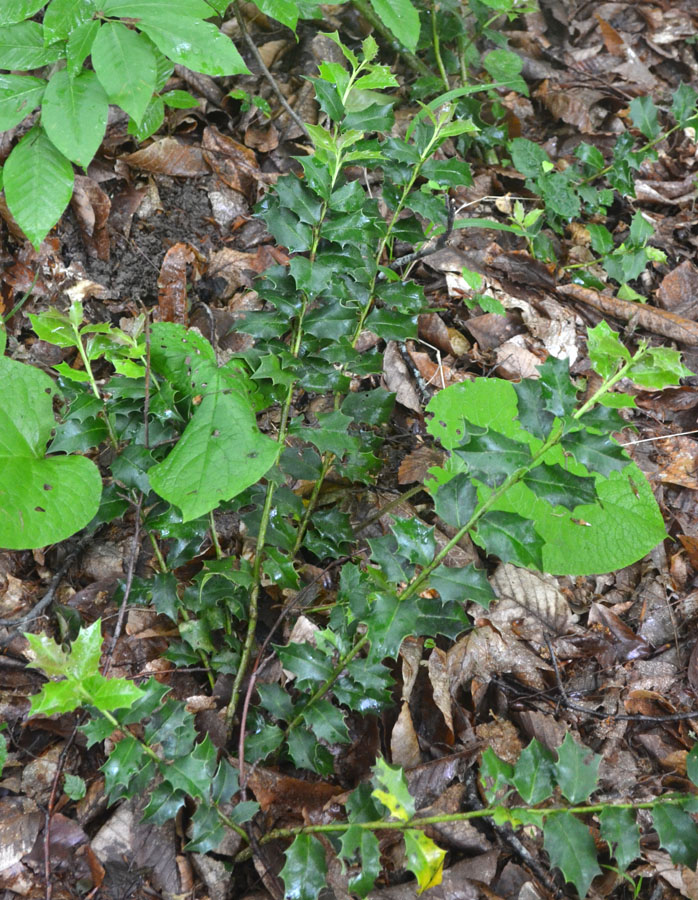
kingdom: Plantae
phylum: Tracheophyta
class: Magnoliopsida
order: Ranunculales
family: Berberidaceae
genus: Mahonia
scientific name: Mahonia aquifolium
